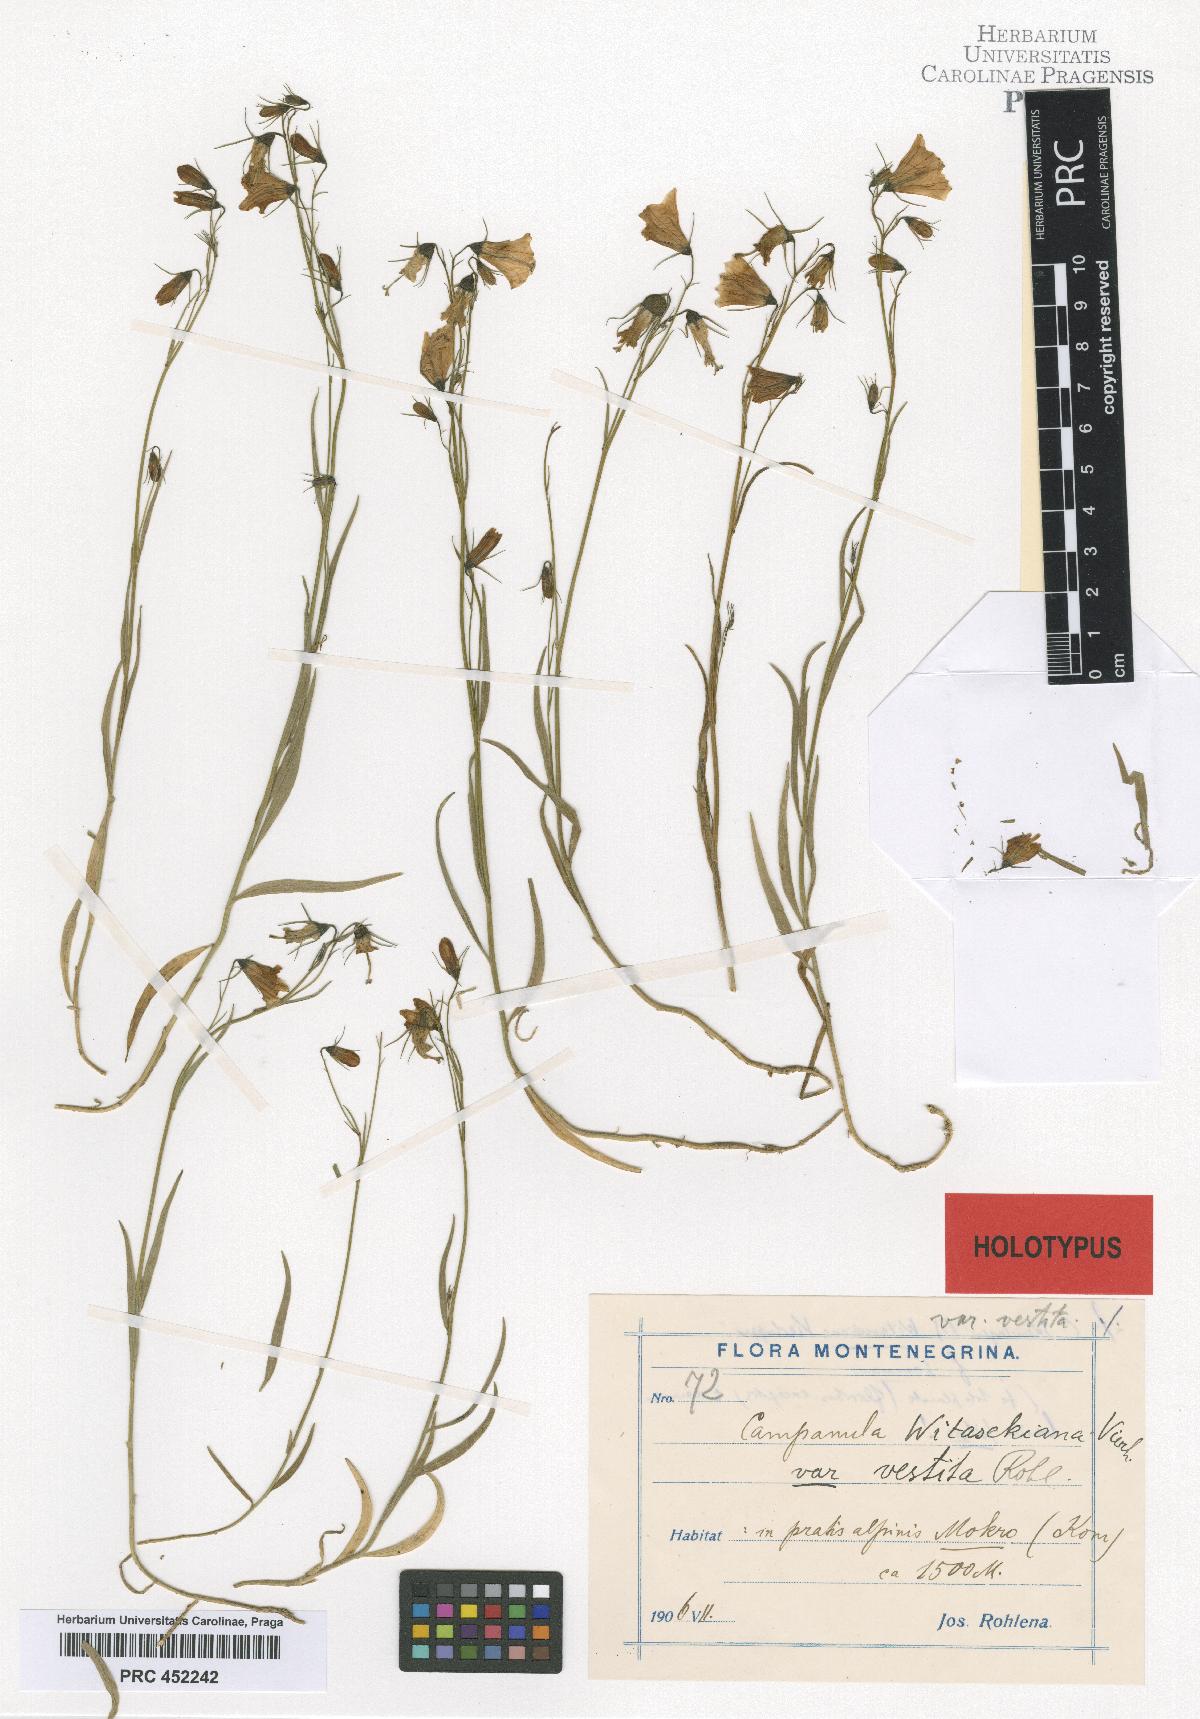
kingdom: Plantae
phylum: Tracheophyta
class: Magnoliopsida
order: Asterales
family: Campanulaceae
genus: Campanula
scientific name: Campanula witasekiana
